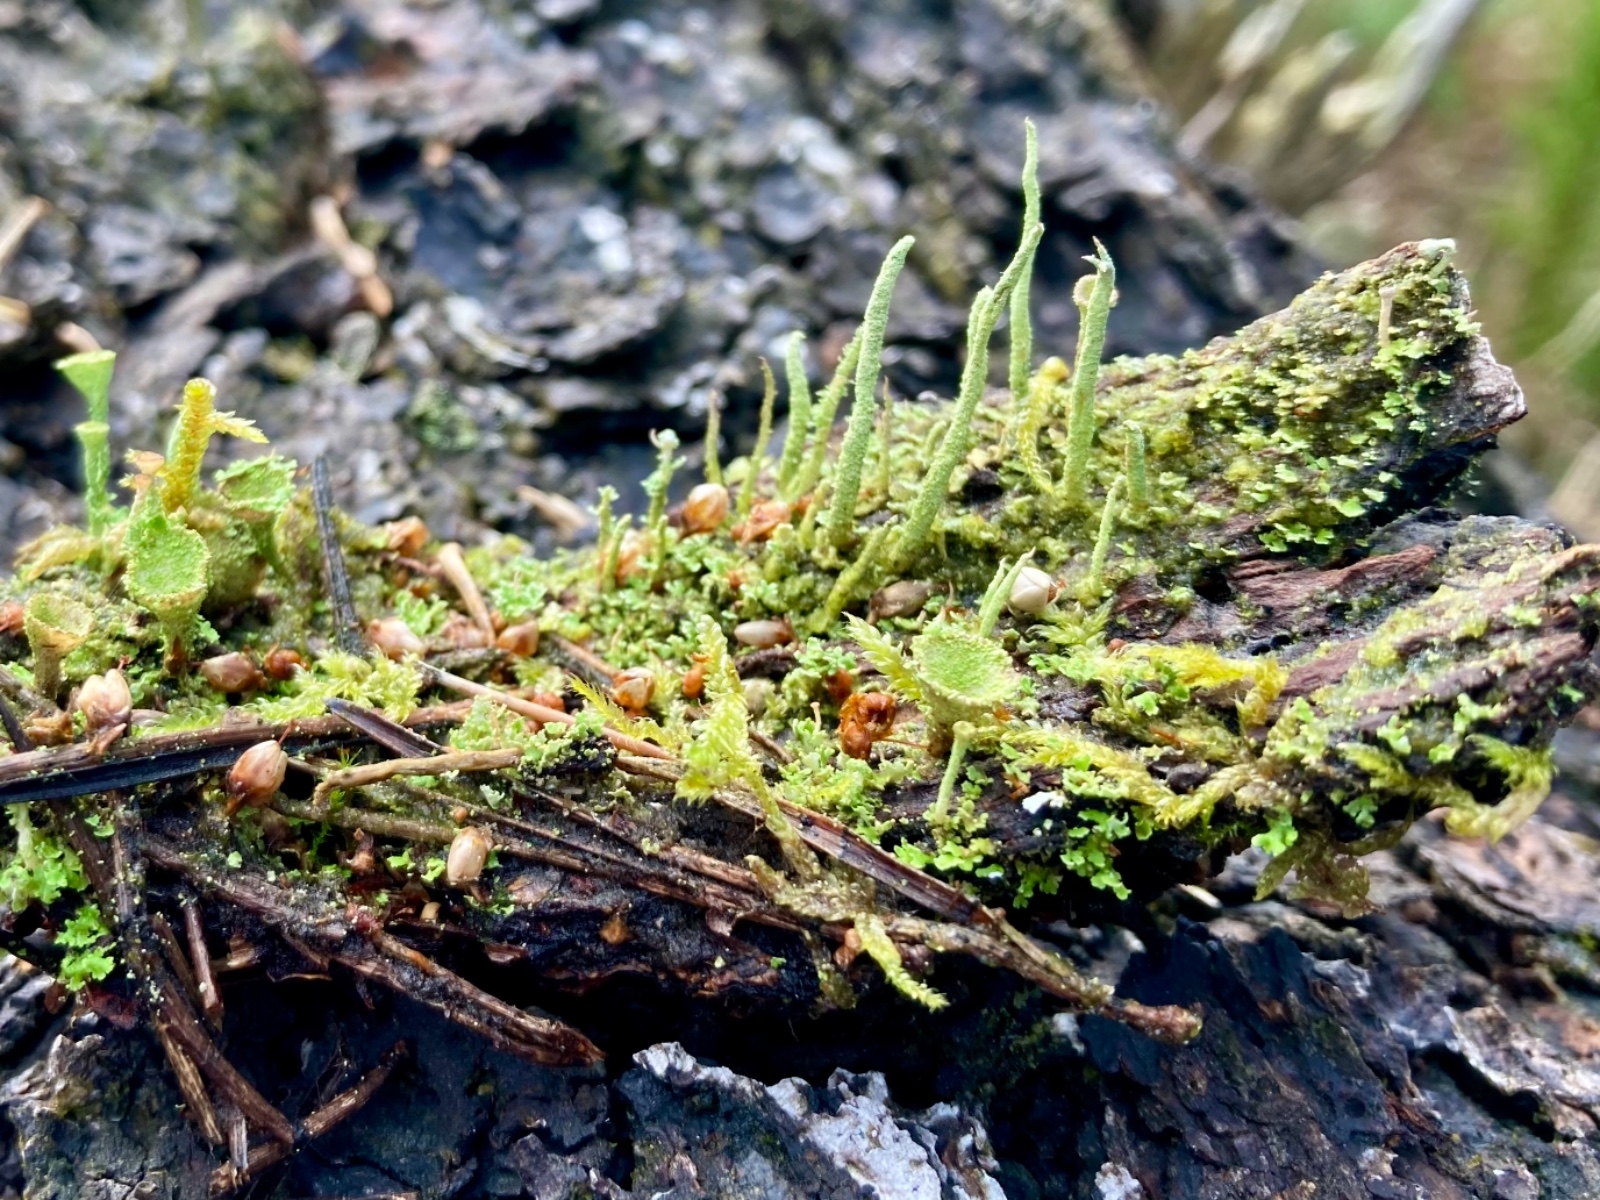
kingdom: Fungi
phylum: Ascomycota
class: Lecanoromycetes
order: Lecanorales
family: Cladoniaceae
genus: Cladonia
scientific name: Cladonia coniocraea
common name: træfods-bægerlav
